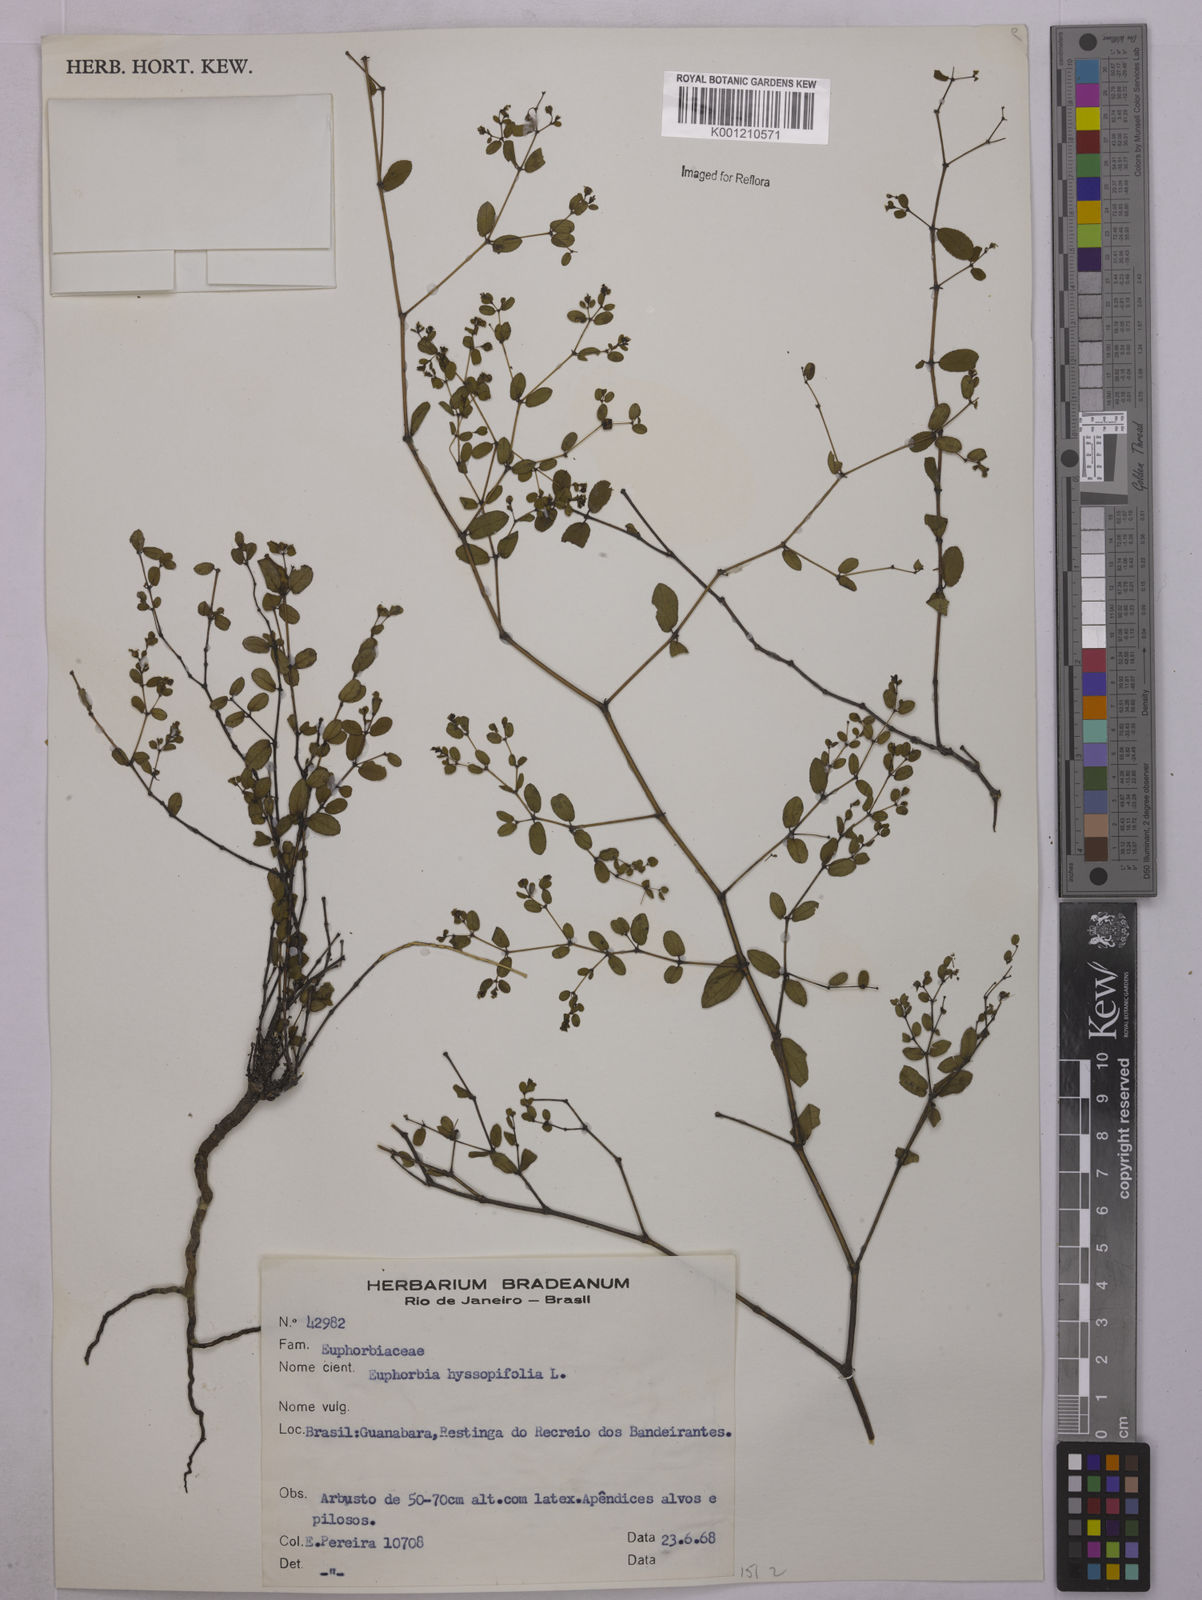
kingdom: Plantae
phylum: Tracheophyta
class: Magnoliopsida
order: Malpighiales
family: Euphorbiaceae
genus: Euphorbia
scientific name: Euphorbia hyssopifolia
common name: Hyssopleaf sandmat
